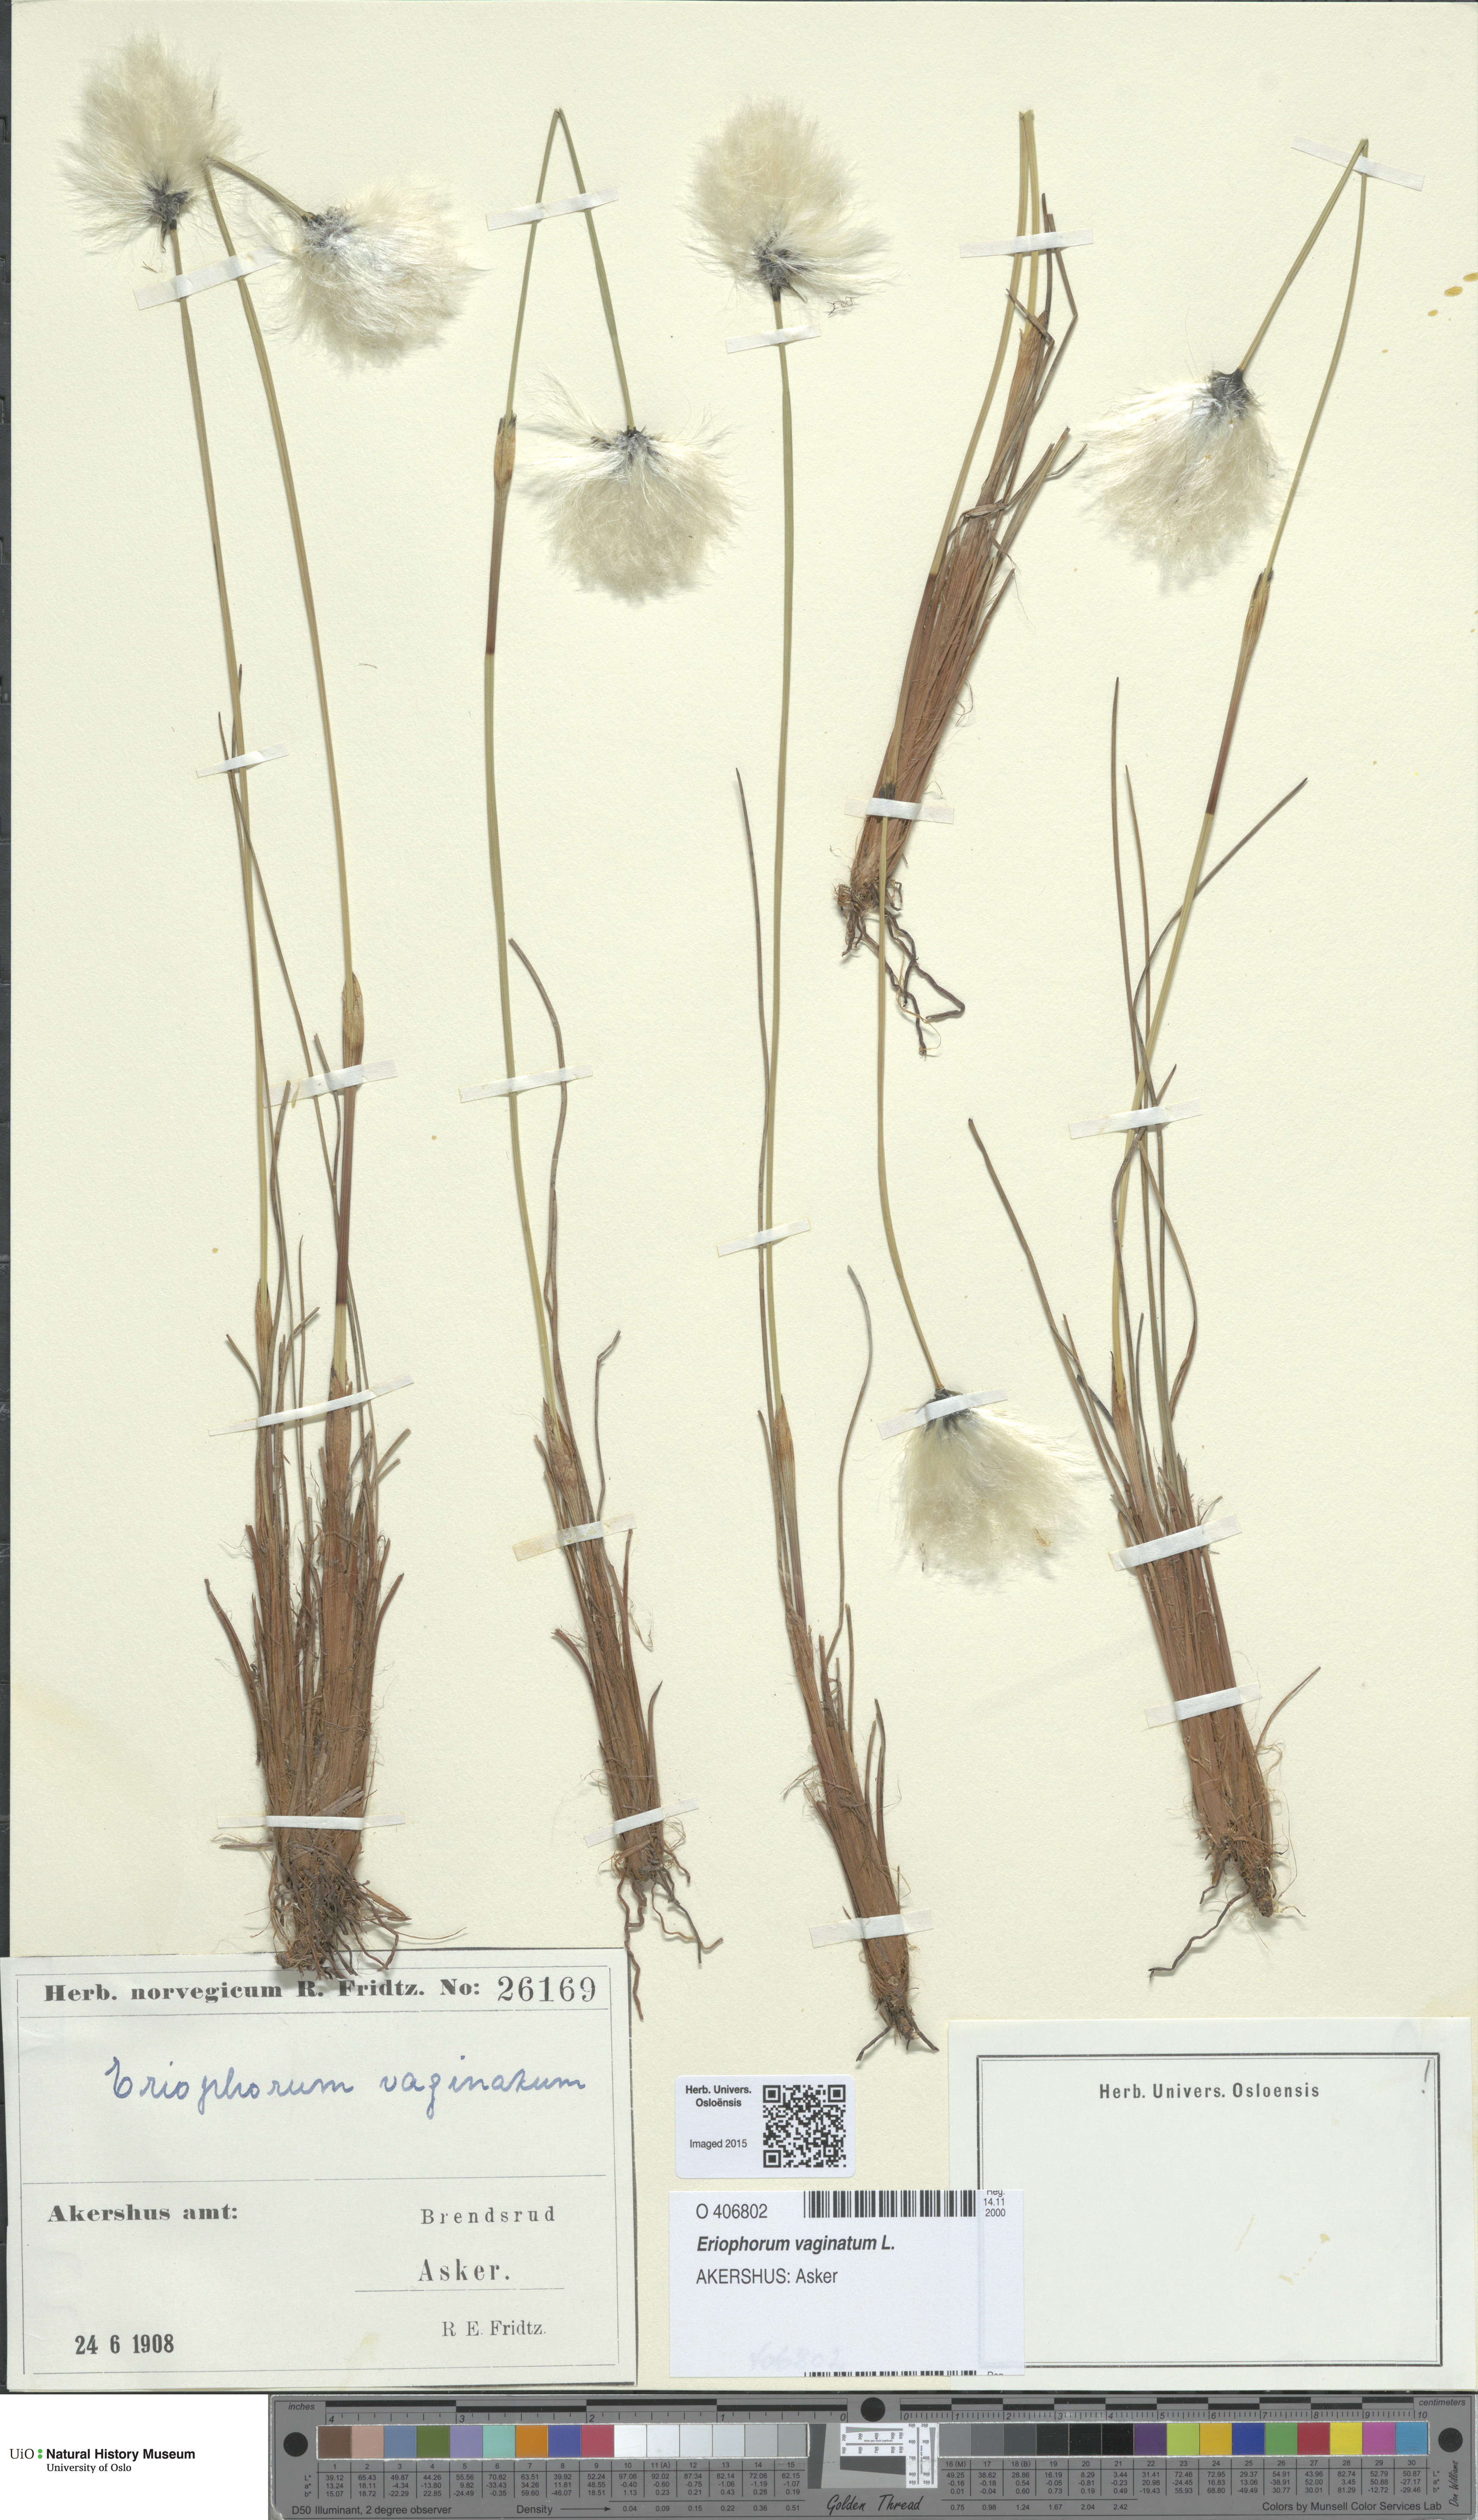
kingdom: Plantae
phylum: Tracheophyta
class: Liliopsida
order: Poales
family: Cyperaceae
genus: Eriophorum
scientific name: Eriophorum vaginatum
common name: Hare's-tail cottongrass
